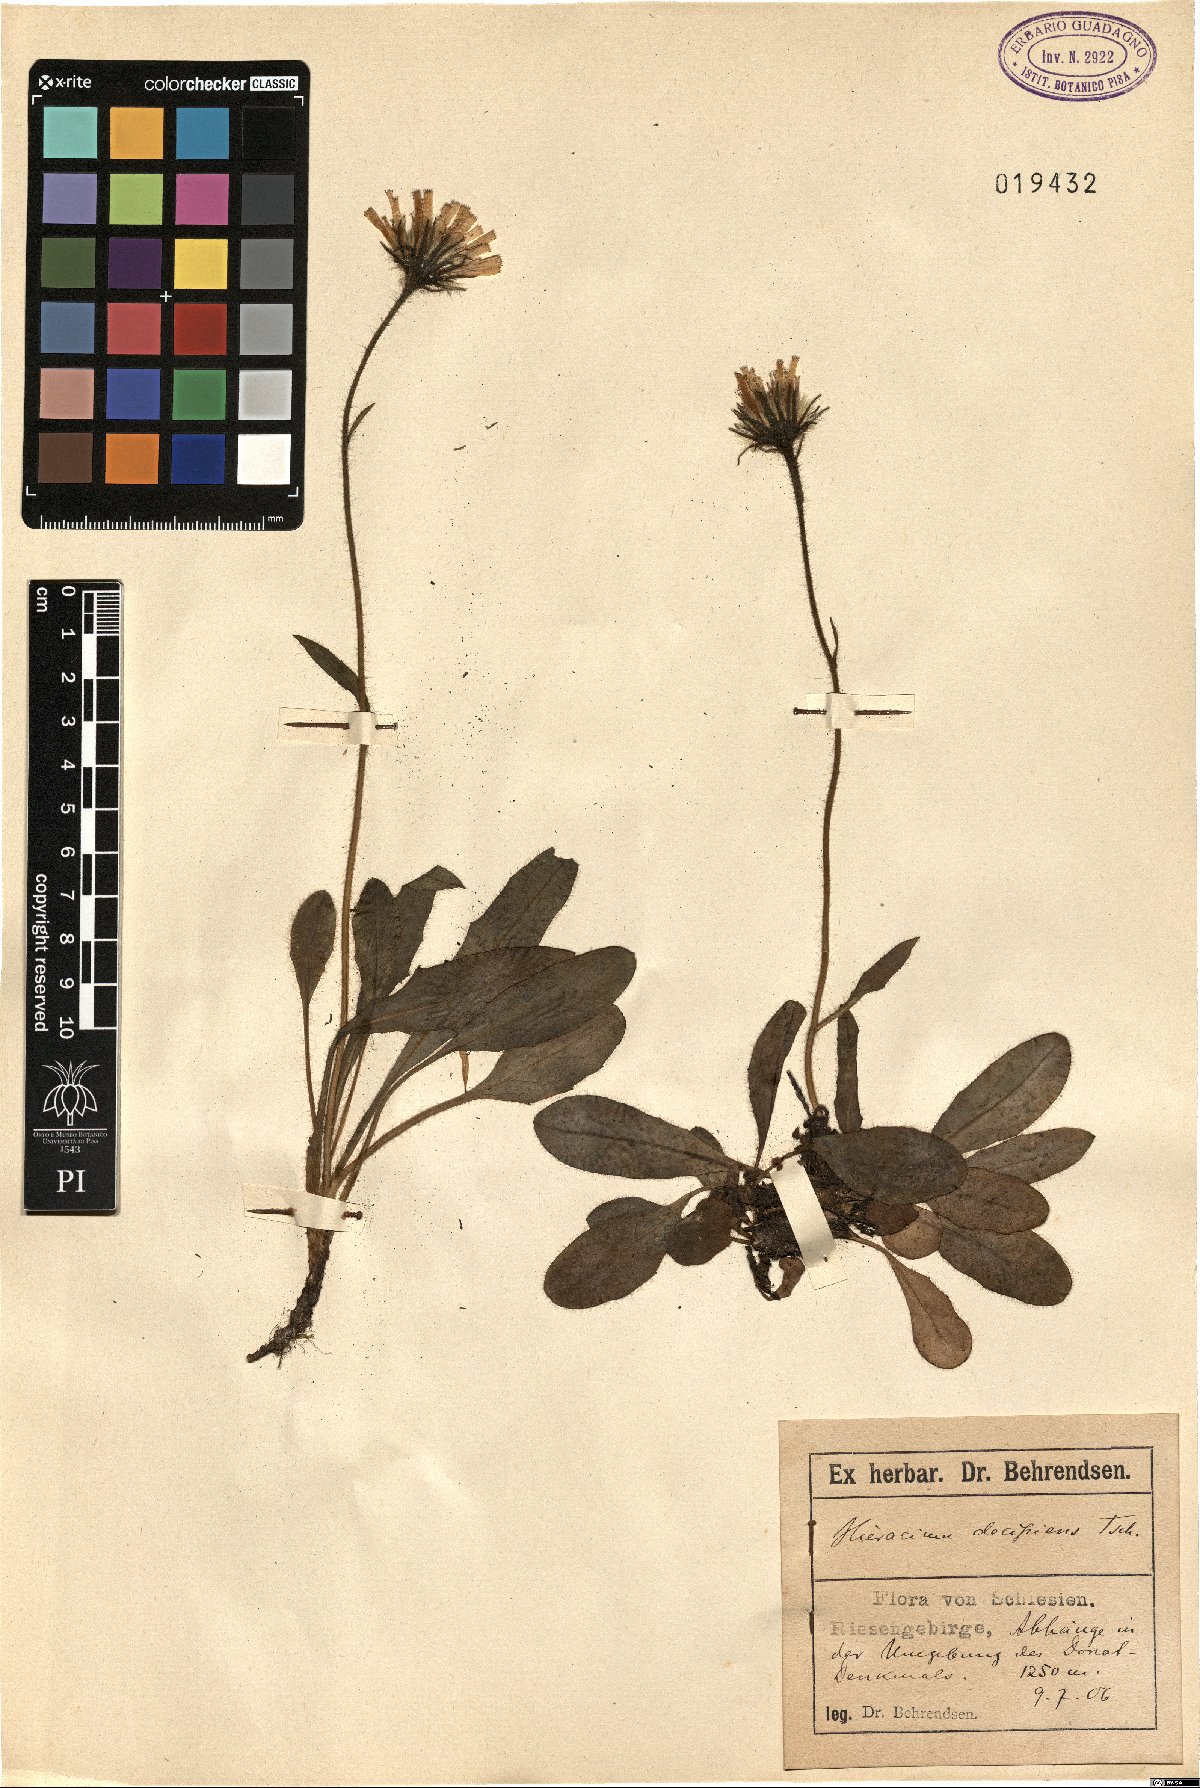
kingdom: Plantae
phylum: Tracheophyta
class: Magnoliopsida
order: Asterales
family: Asteraceae
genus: Hieracium
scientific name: Hieracium nigrescens
